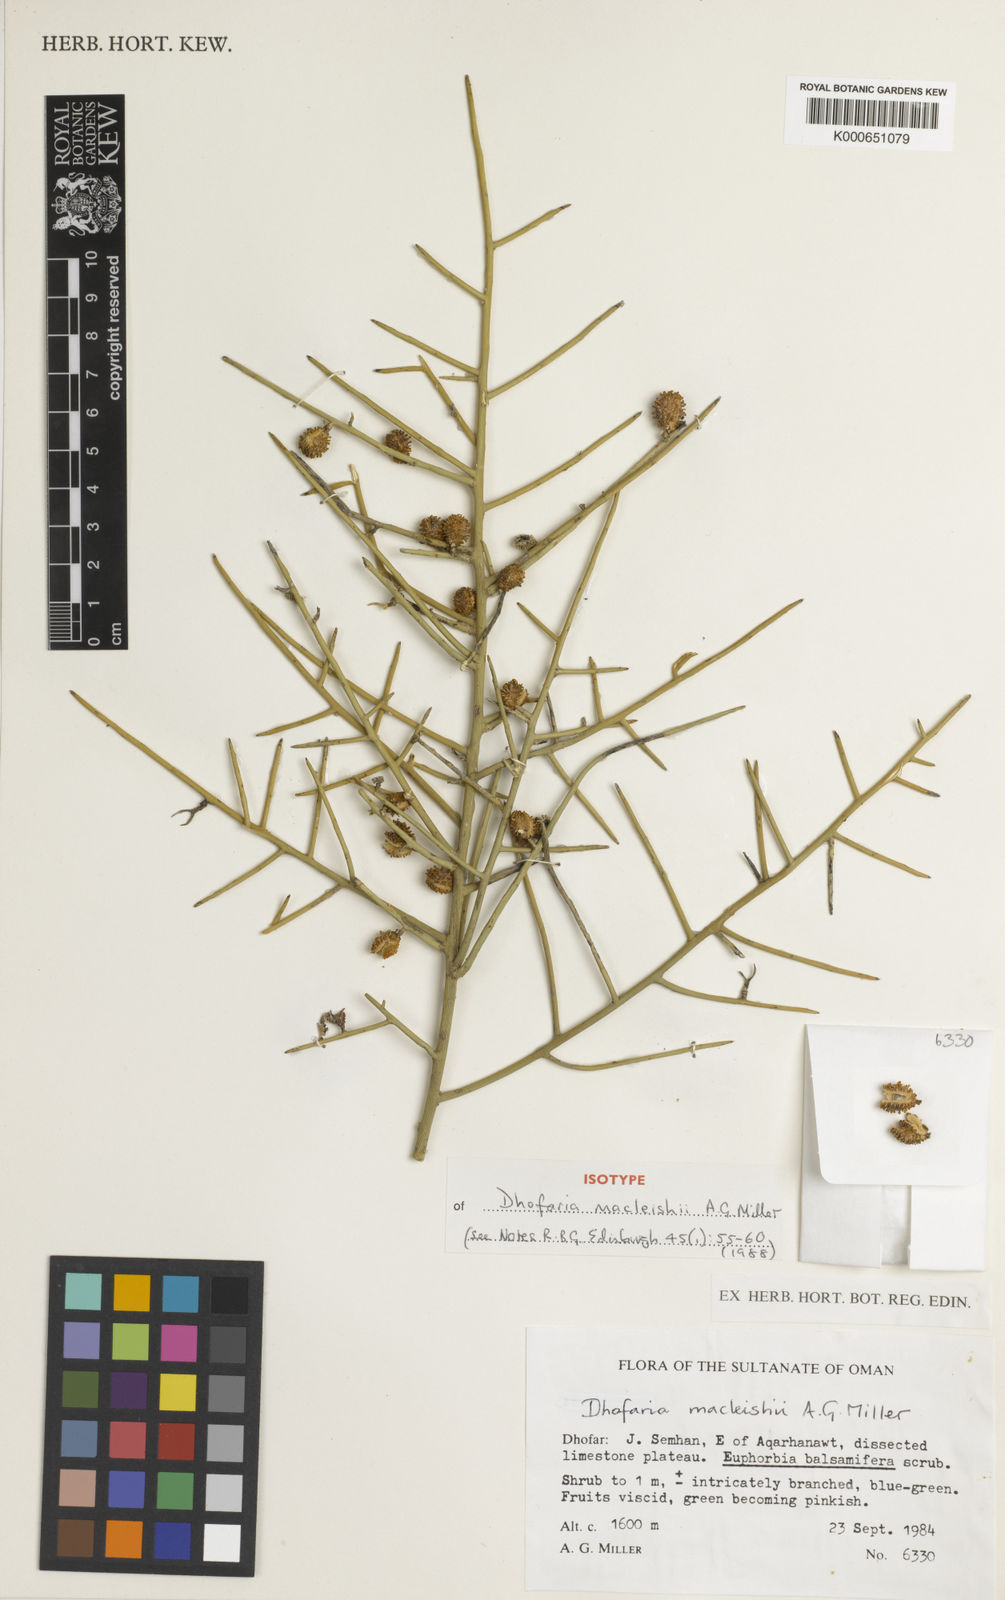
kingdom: Plantae
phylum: Tracheophyta
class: Magnoliopsida
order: Brassicales
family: Capparaceae
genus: Dhofaria
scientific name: Dhofaria macleishii
